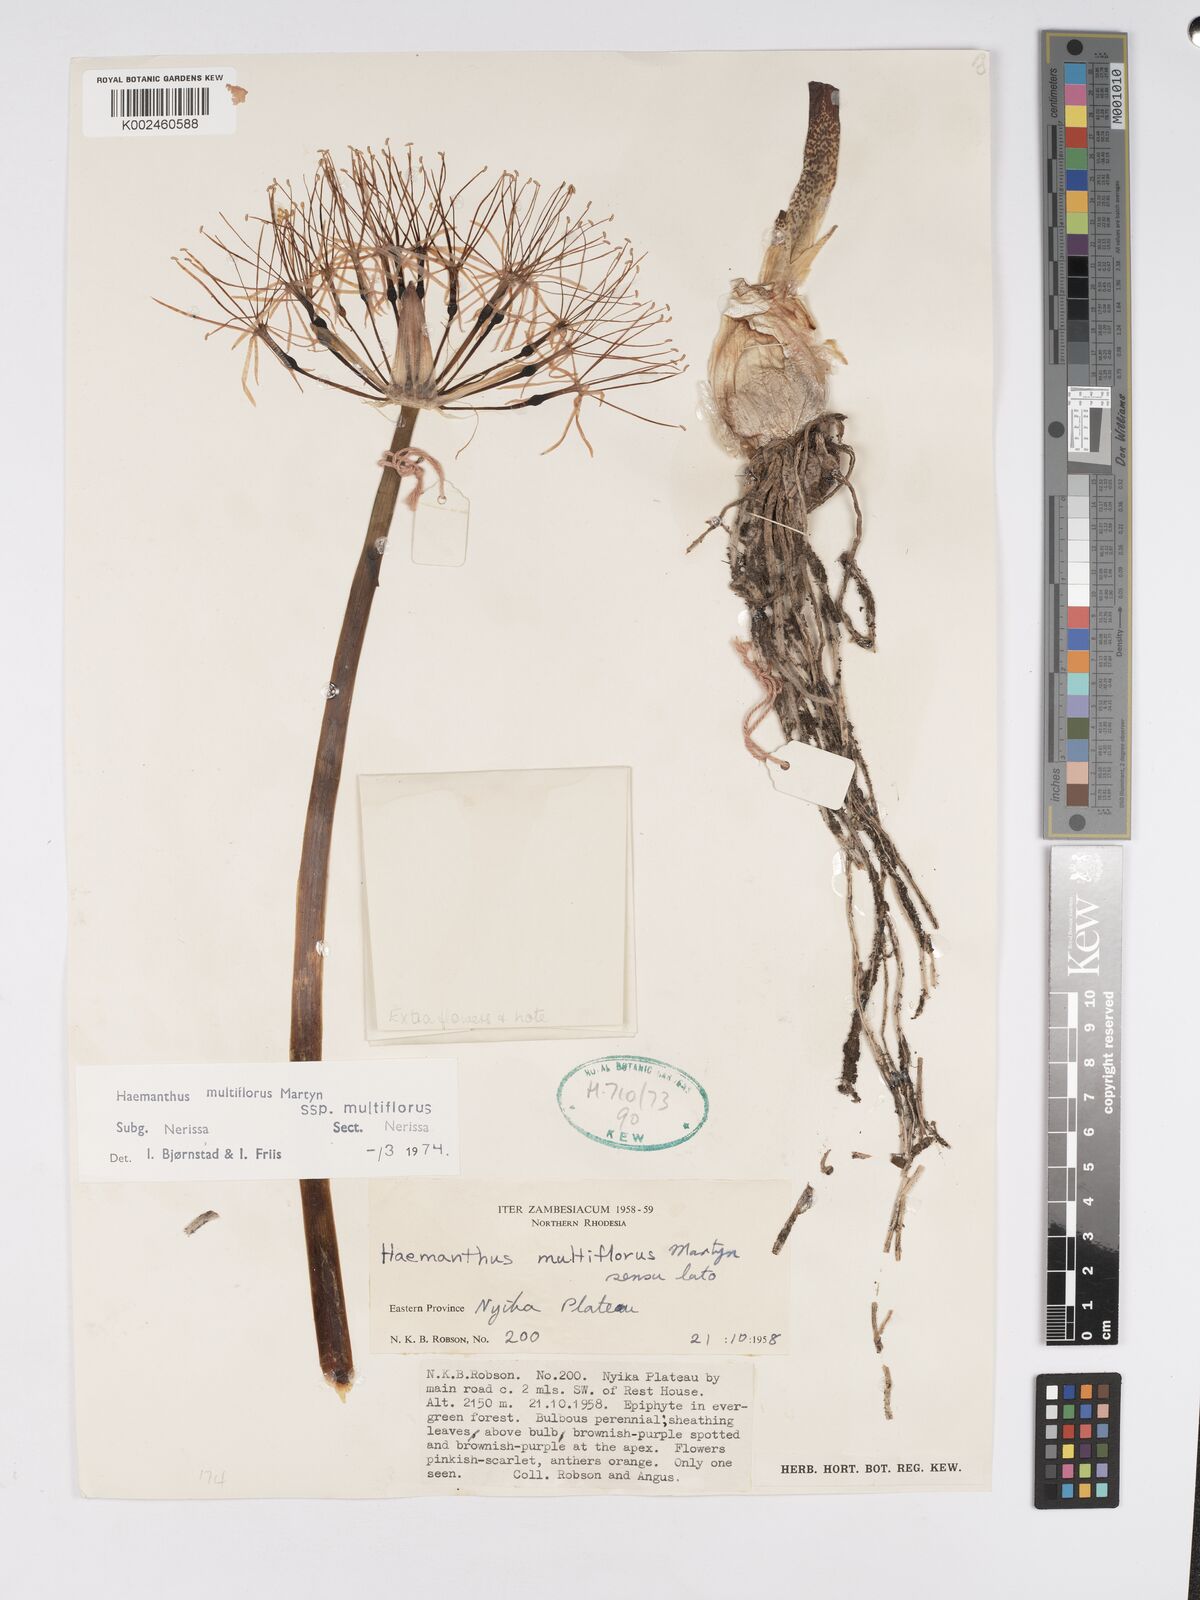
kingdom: Plantae
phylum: Tracheophyta
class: Liliopsida
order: Asparagales
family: Amaryllidaceae
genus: Scadoxus
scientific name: Scadoxus multiflorus
